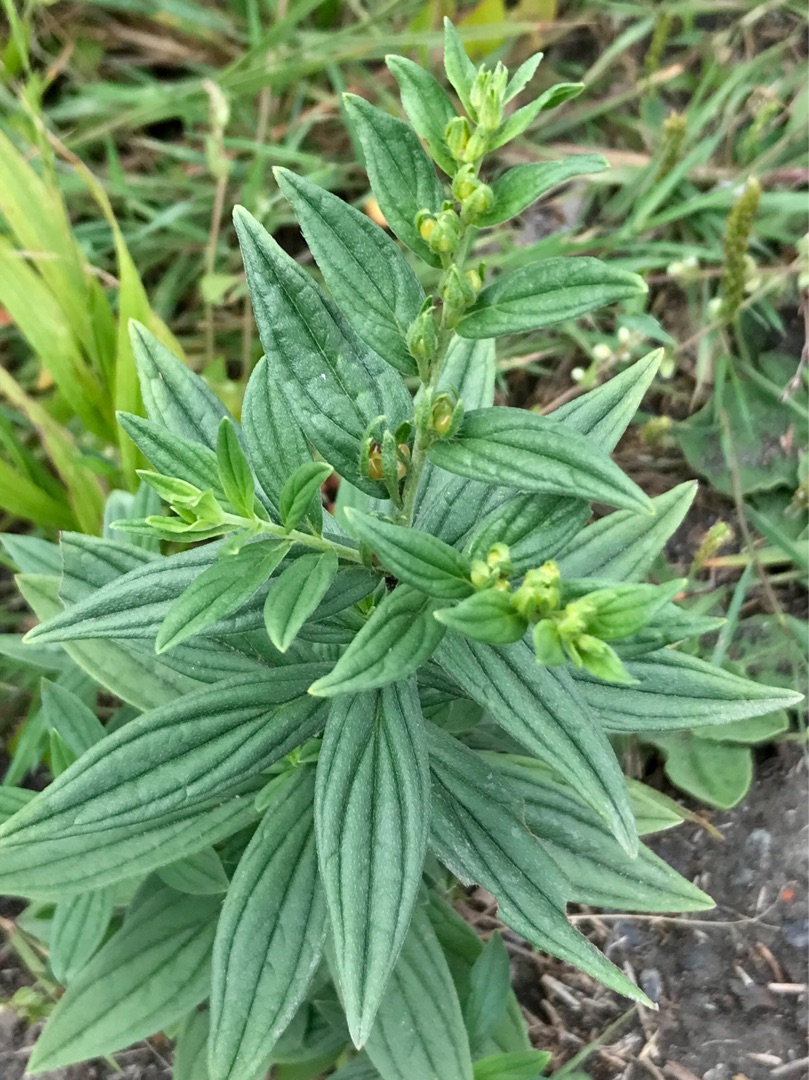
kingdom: Plantae
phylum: Tracheophyta
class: Magnoliopsida
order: Boraginales
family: Boraginaceae
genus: Lithospermum
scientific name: Lithospermum officinale
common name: Læge-stenfrø
